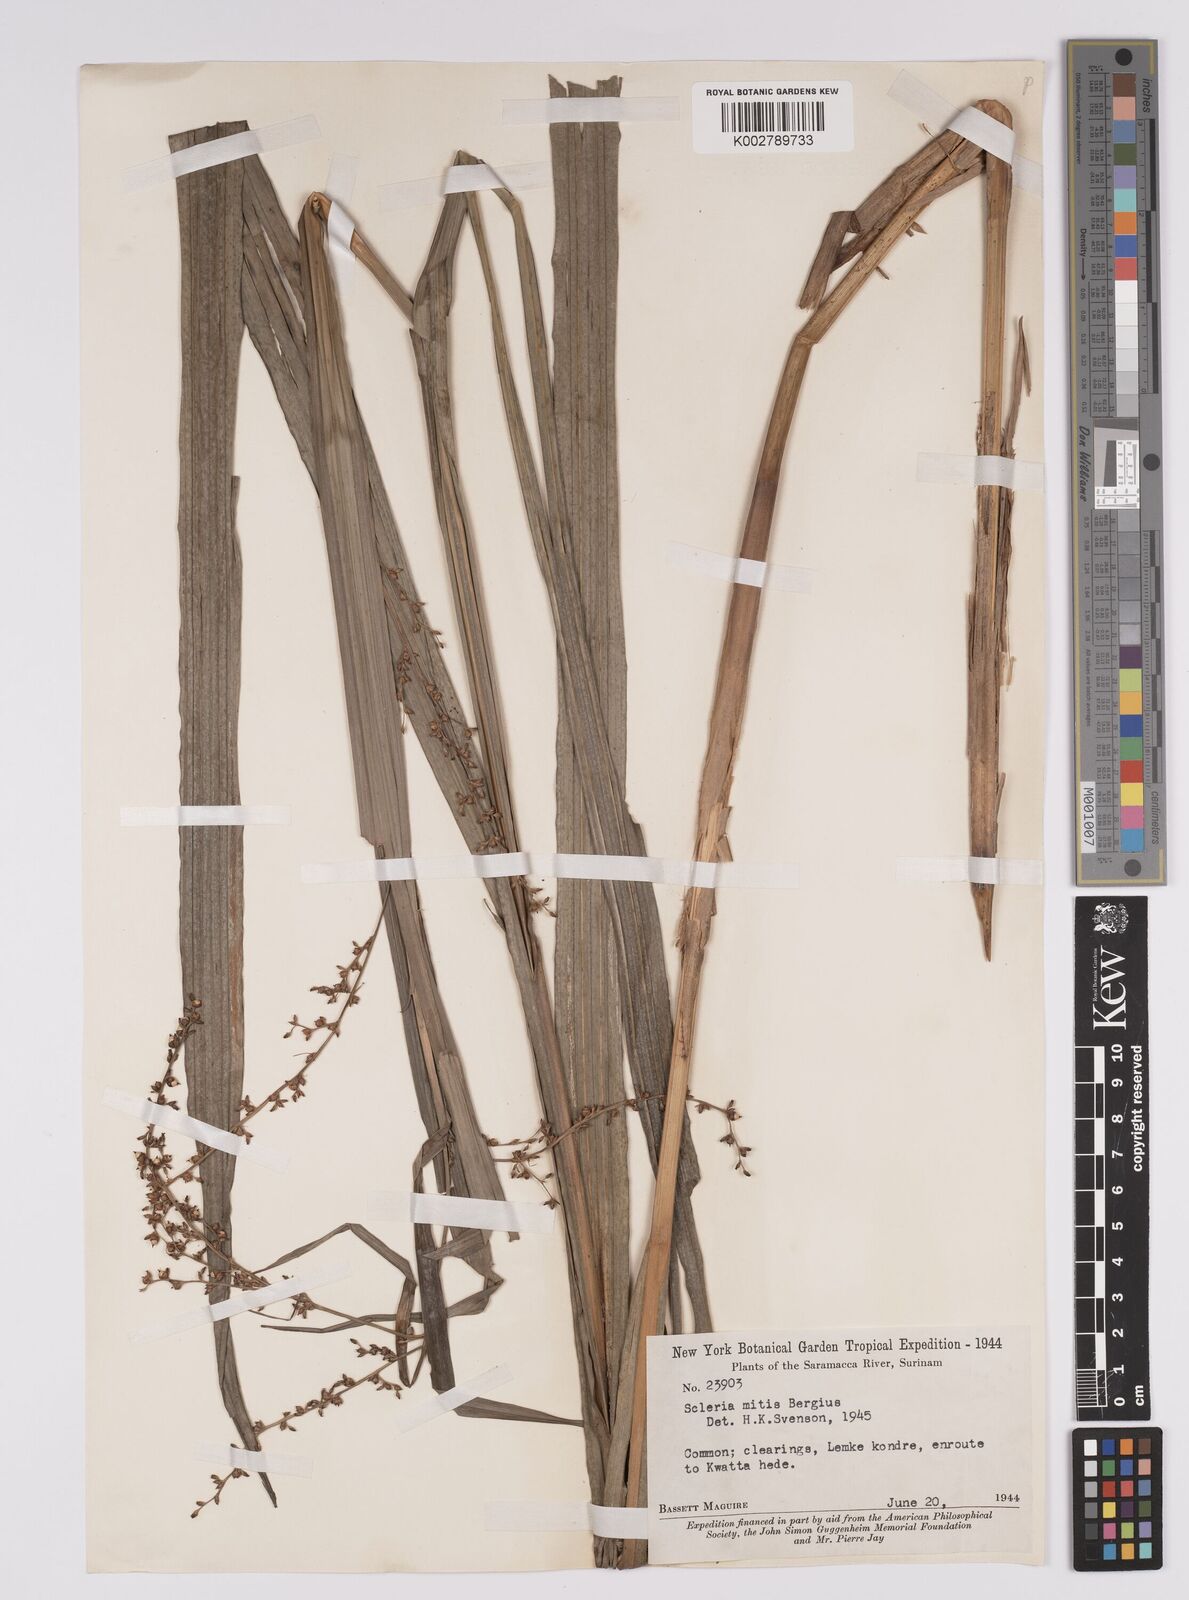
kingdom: Plantae
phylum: Tracheophyta
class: Liliopsida
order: Poales
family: Cyperaceae
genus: Scleria
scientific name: Scleria mitis
